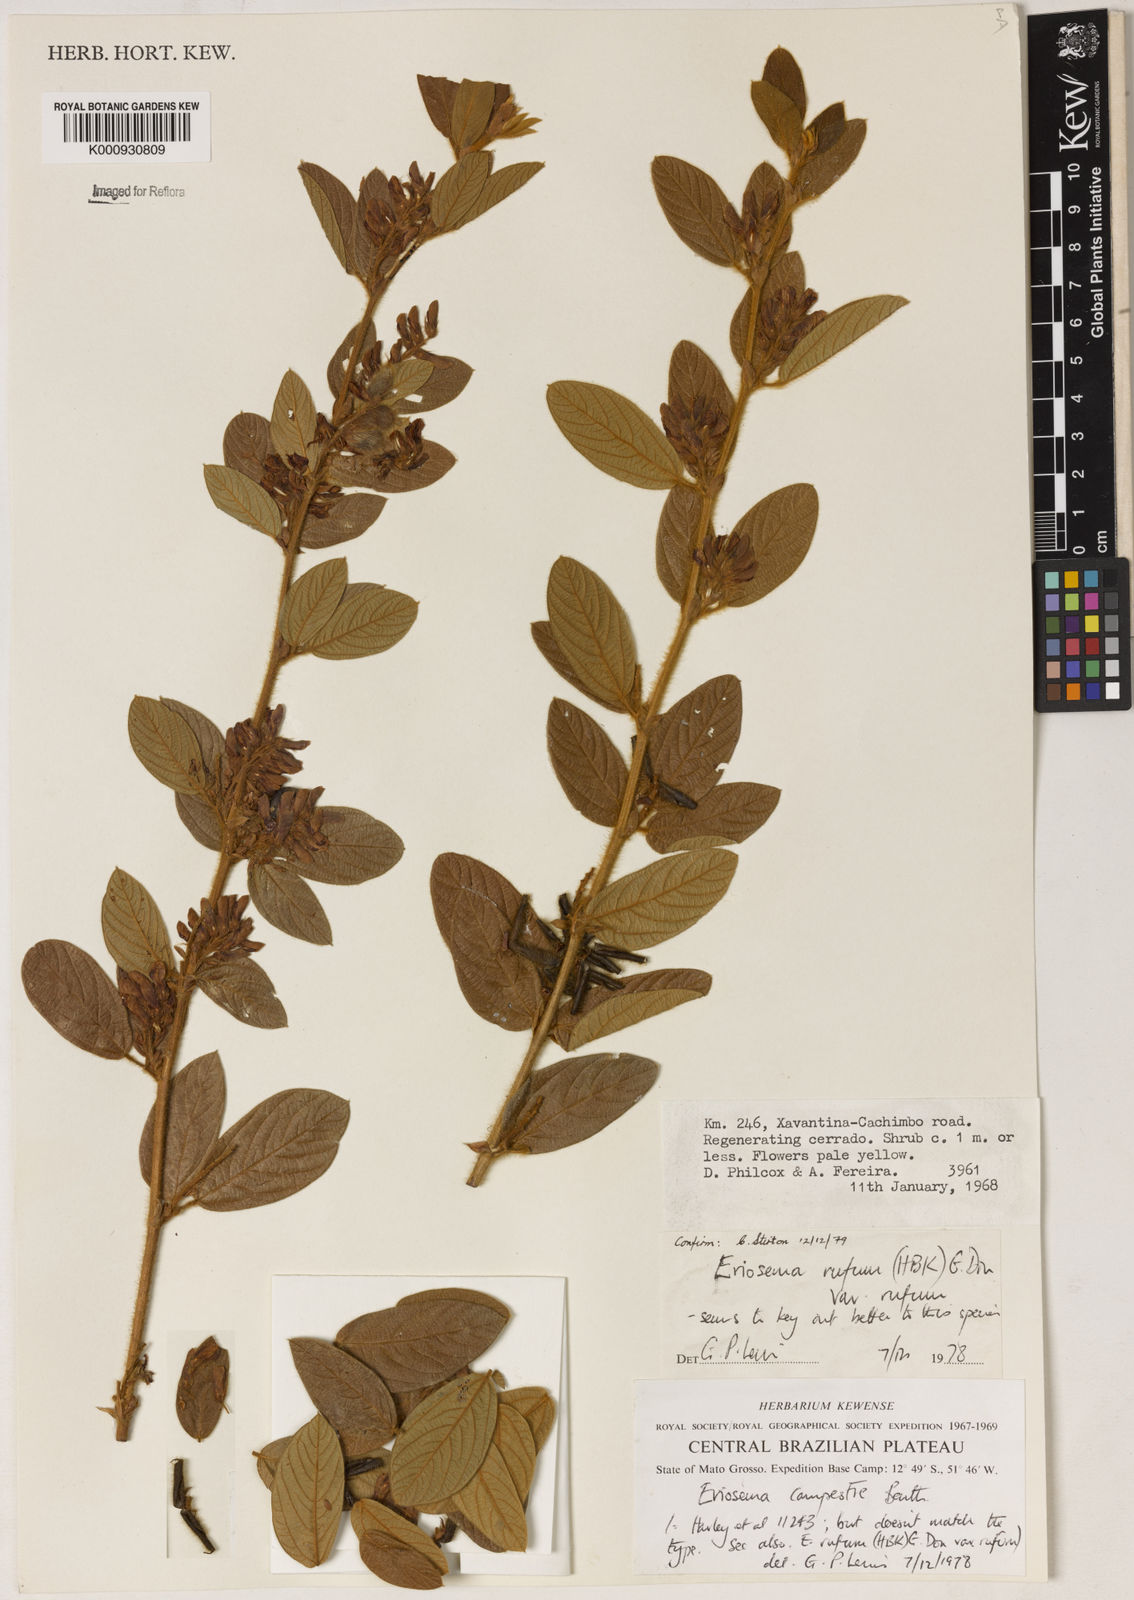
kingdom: Plantae
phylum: Tracheophyta
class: Magnoliopsida
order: Fabales
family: Fabaceae
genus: Eriosema
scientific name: Eriosema rufum
